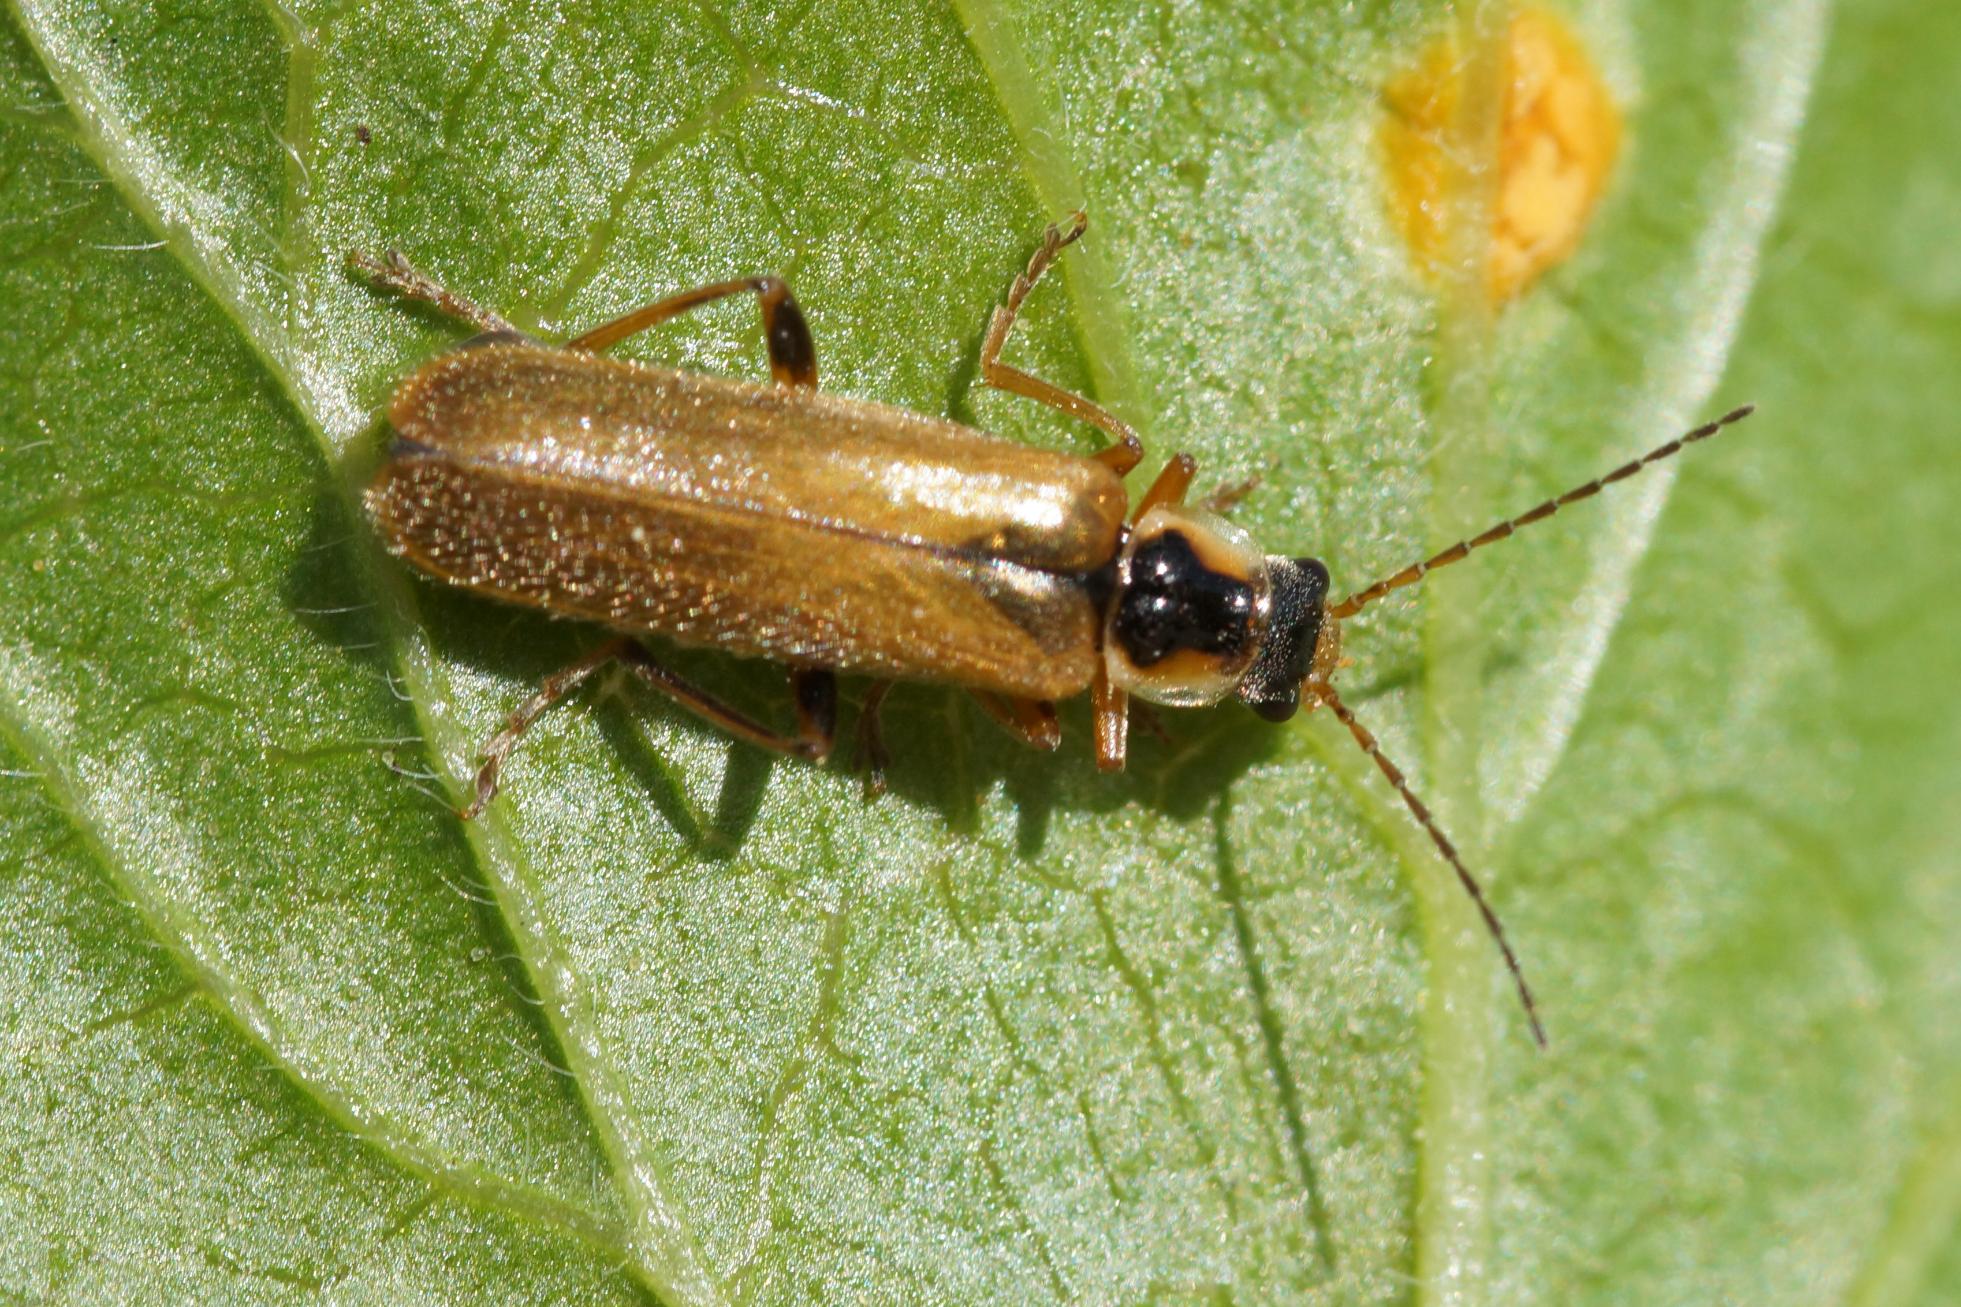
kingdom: Animalia
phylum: Arthropoda
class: Insecta
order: Coleoptera
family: Cantharidae
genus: Cantharis
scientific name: Cantharis decipiens
